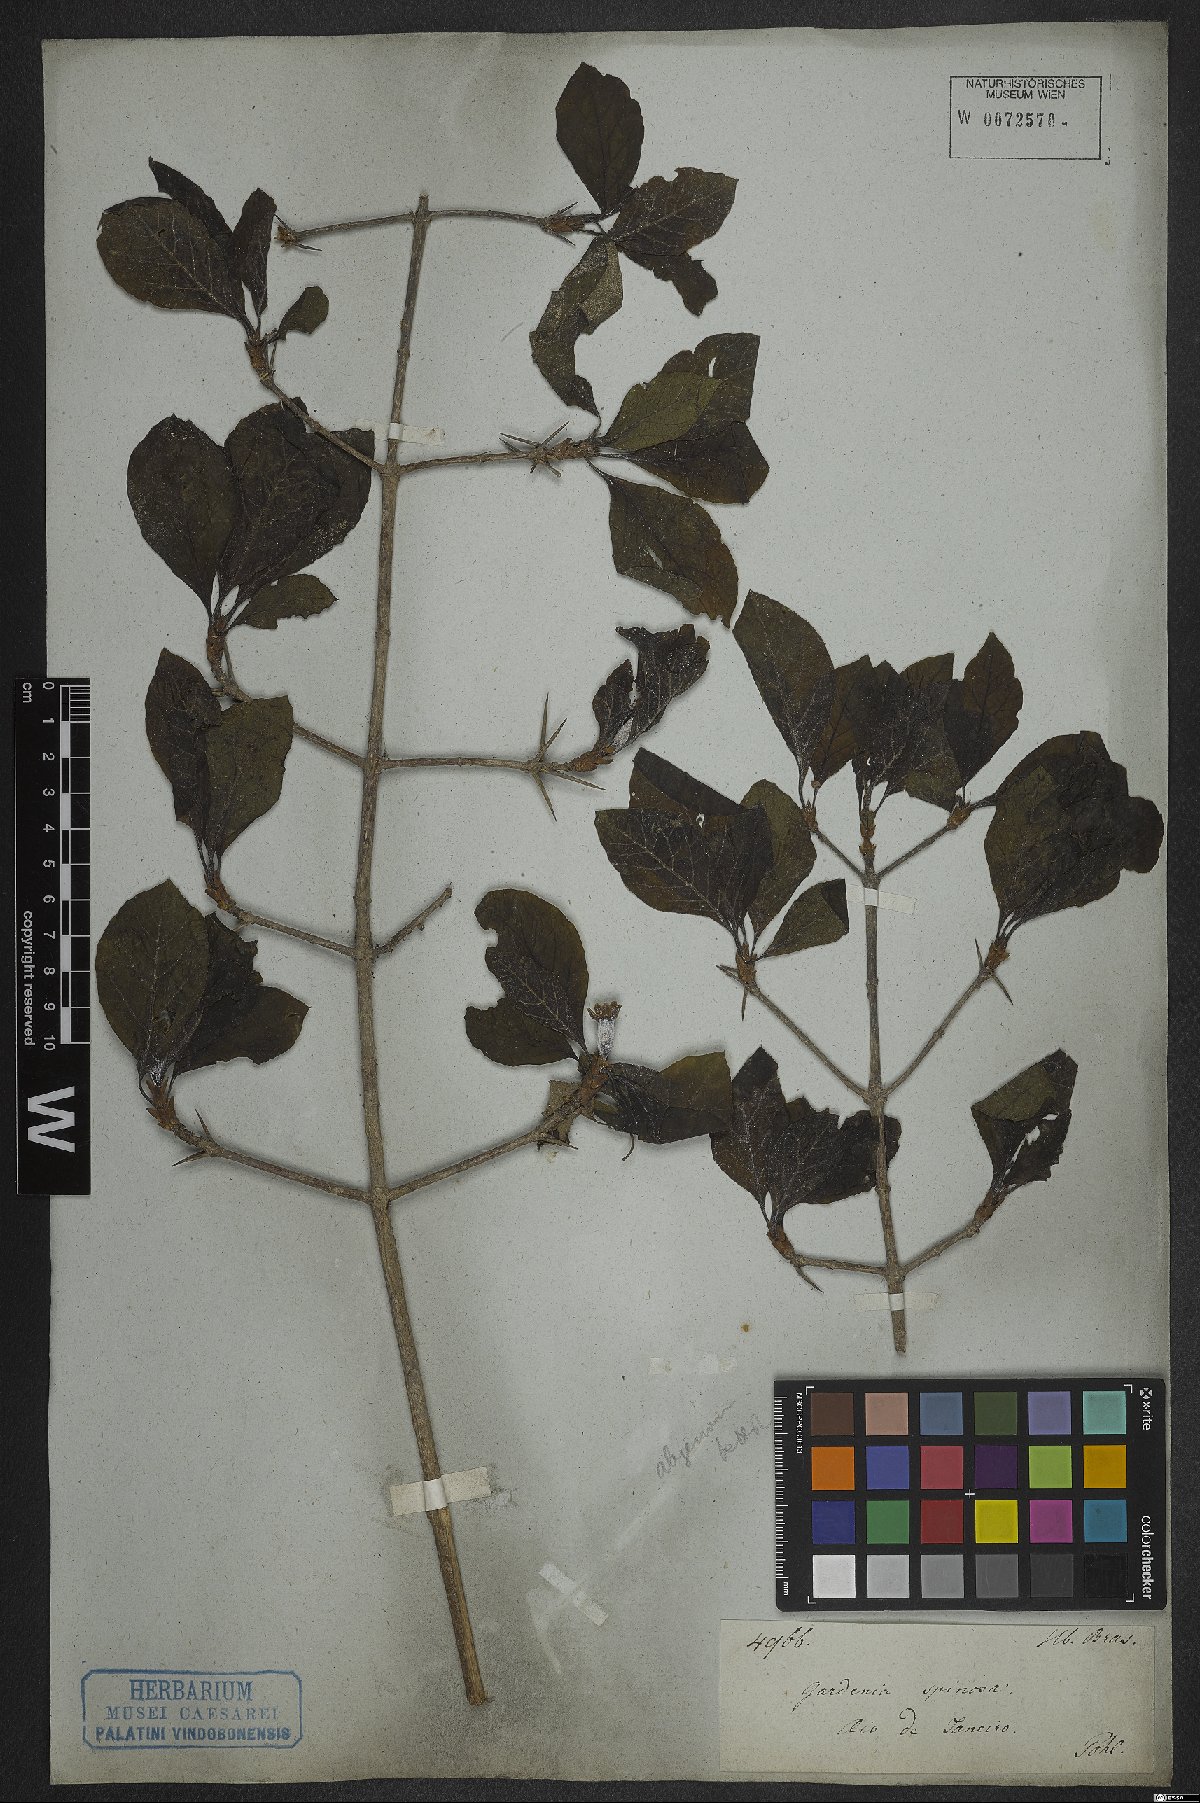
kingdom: Plantae
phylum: Tracheophyta
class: Magnoliopsida
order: Gentianales
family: Rubiaceae
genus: Randia
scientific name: Randia armata
